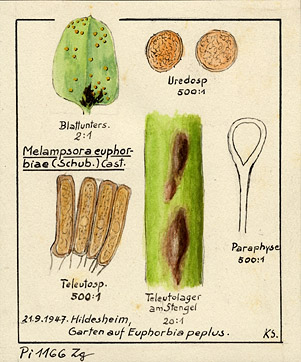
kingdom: Plantae
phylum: Tracheophyta
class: Magnoliopsida
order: Malpighiales
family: Euphorbiaceae
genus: Euphorbia
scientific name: Euphorbia peplus
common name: Petty spurge
